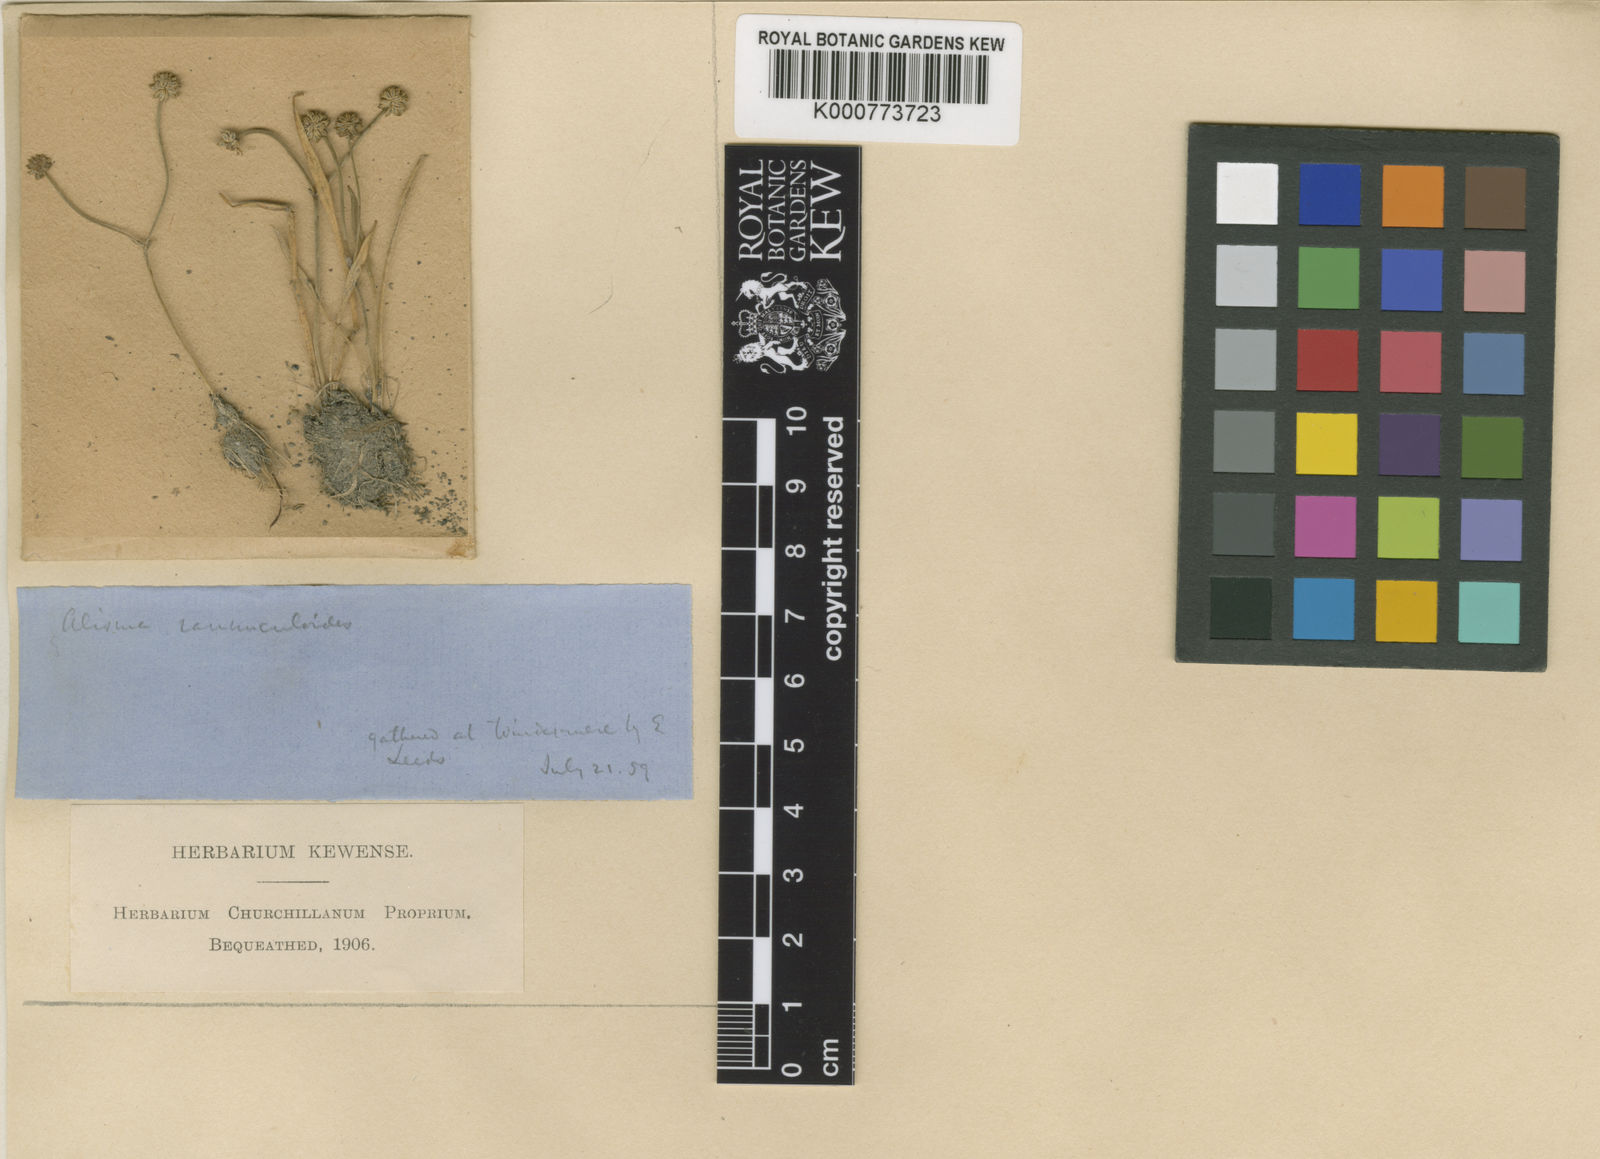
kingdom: Plantae
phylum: Tracheophyta
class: Liliopsida
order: Alismatales
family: Alismataceae
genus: Baldellia
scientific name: Baldellia ranunculoides
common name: Lesser water-plantain
